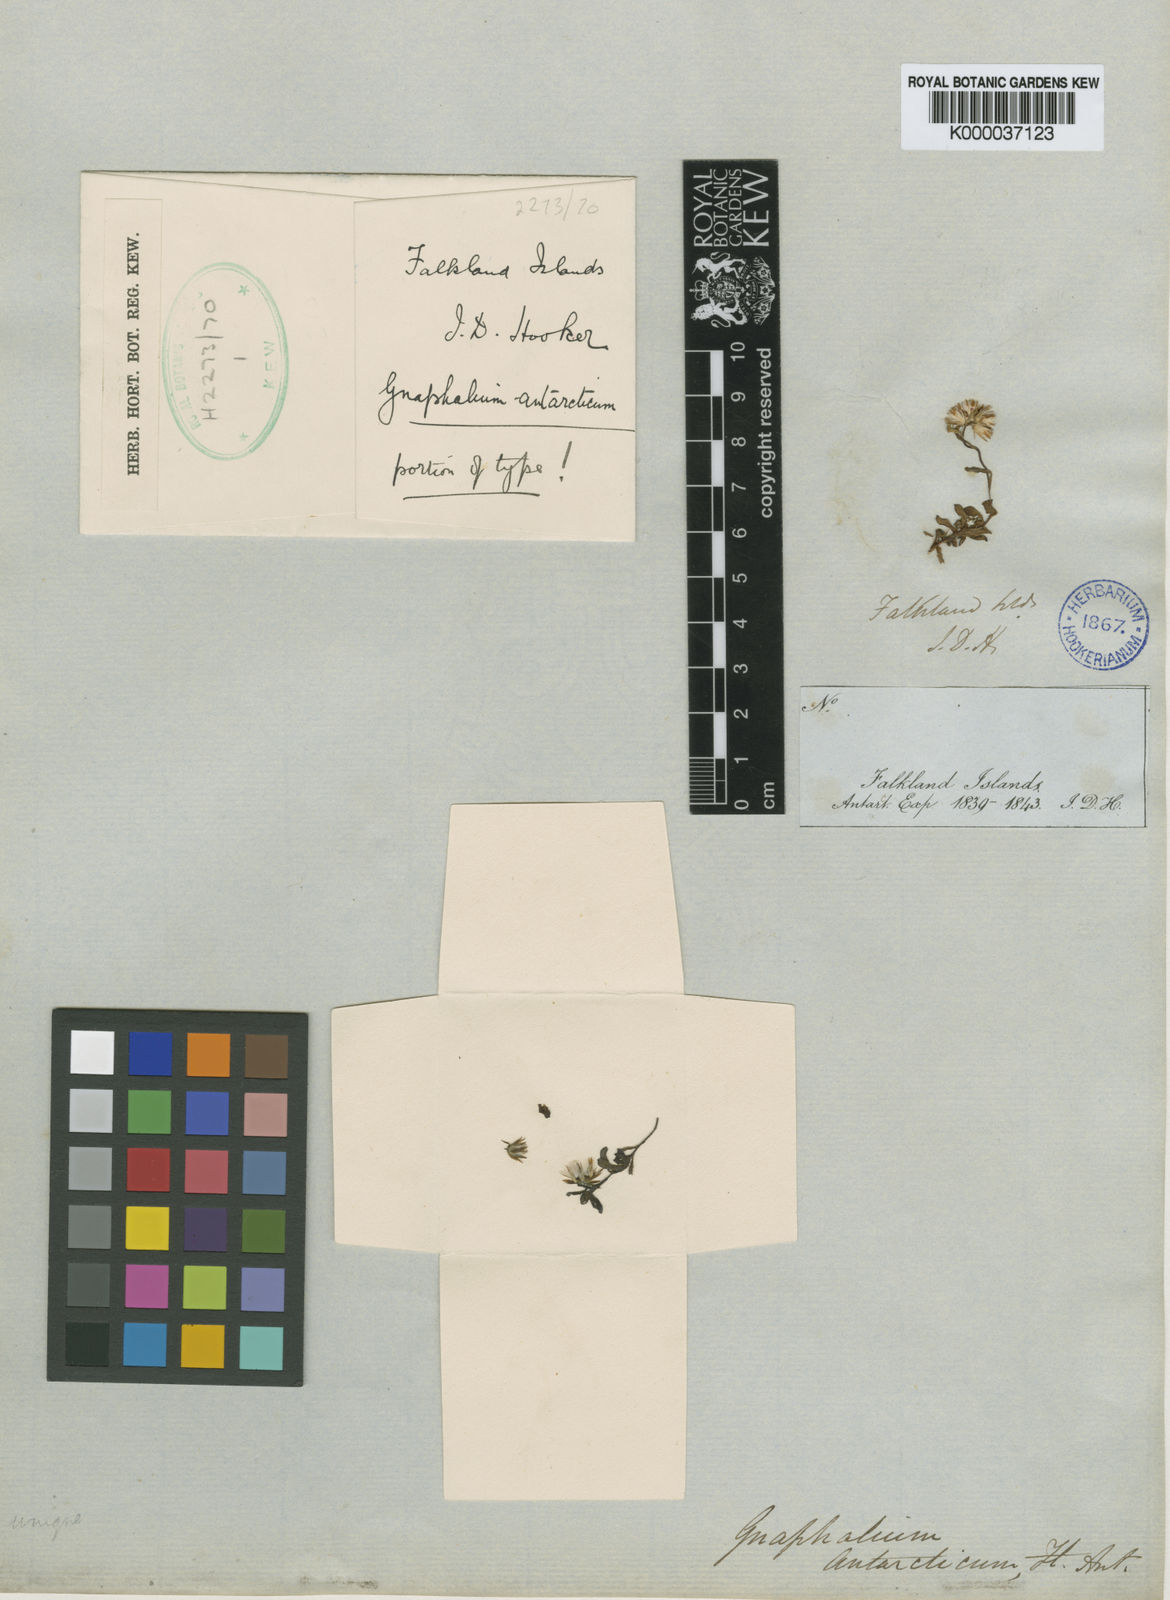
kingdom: Plantae
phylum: Tracheophyta
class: Magnoliopsida
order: Asterales
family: Asteraceae
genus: Gamochaeta
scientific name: Gamochaeta antarctica
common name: Antarctic cudweed
